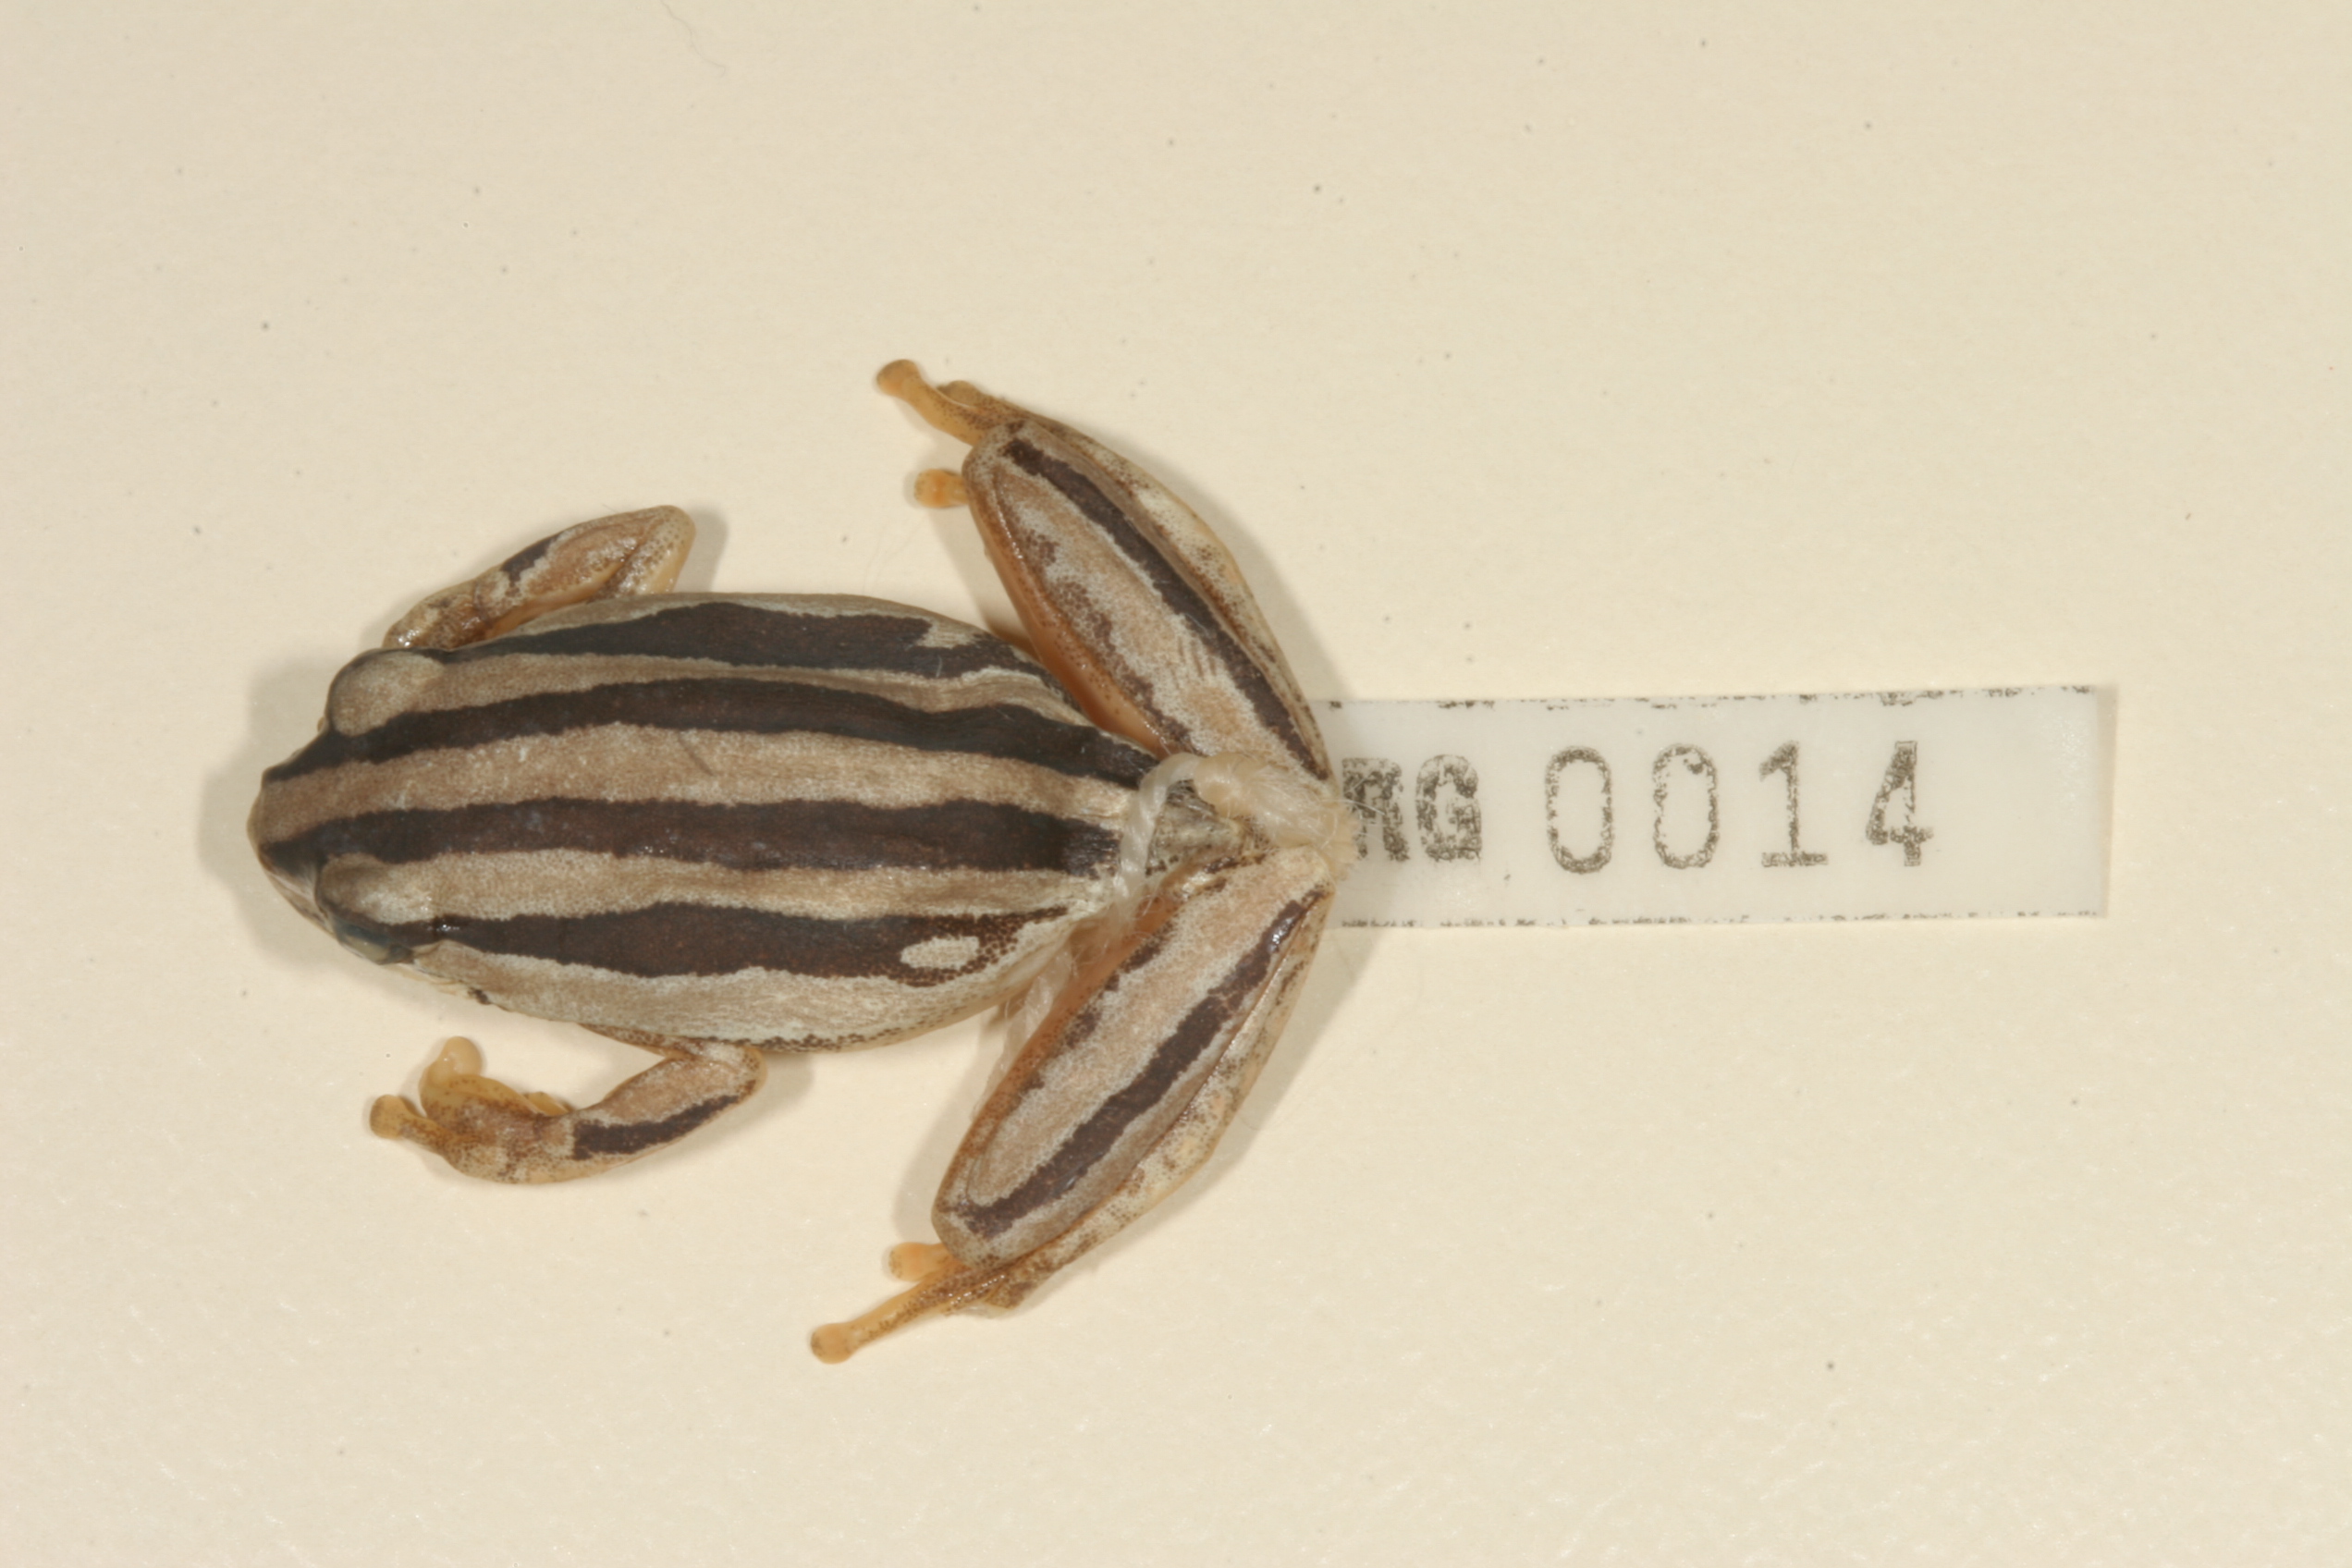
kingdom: Animalia
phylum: Chordata
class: Amphibia
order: Anura
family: Hyperoliidae
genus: Hyperolius
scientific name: Hyperolius marmoratus
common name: Painted reed frog
